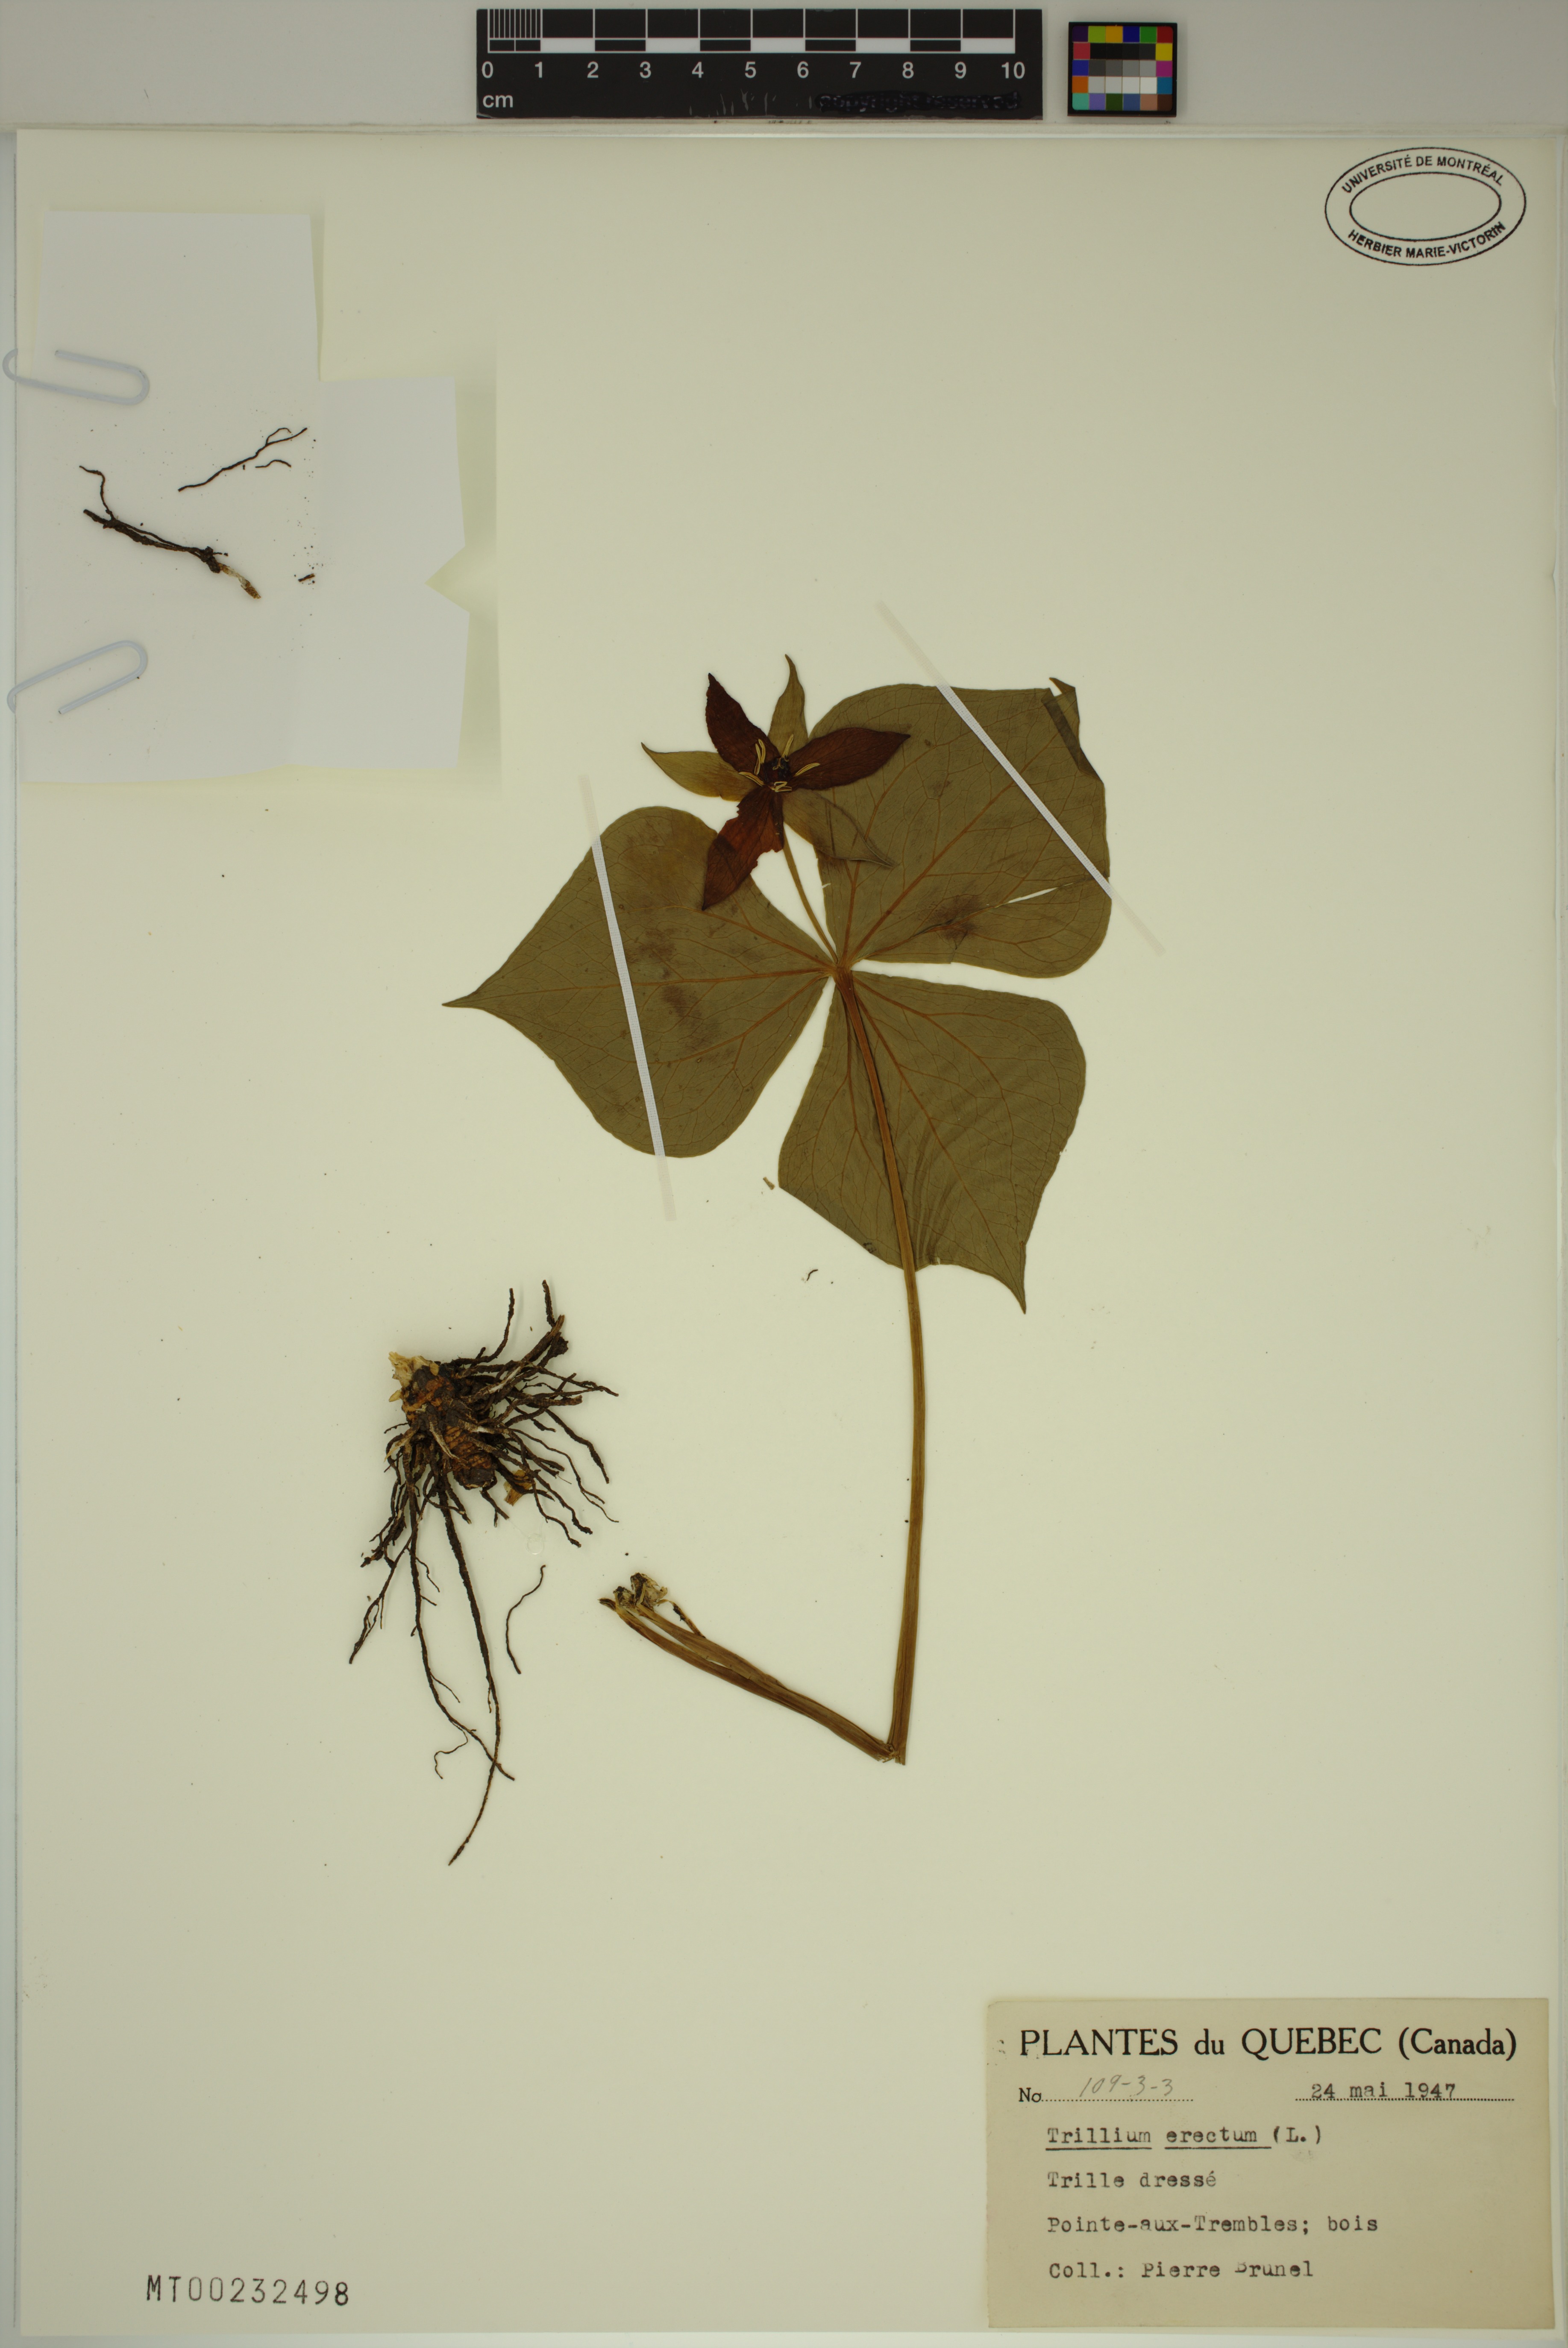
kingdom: Plantae
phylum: Tracheophyta
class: Liliopsida
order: Liliales
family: Melanthiaceae
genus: Trillium
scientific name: Trillium erectum
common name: Purple trillium
